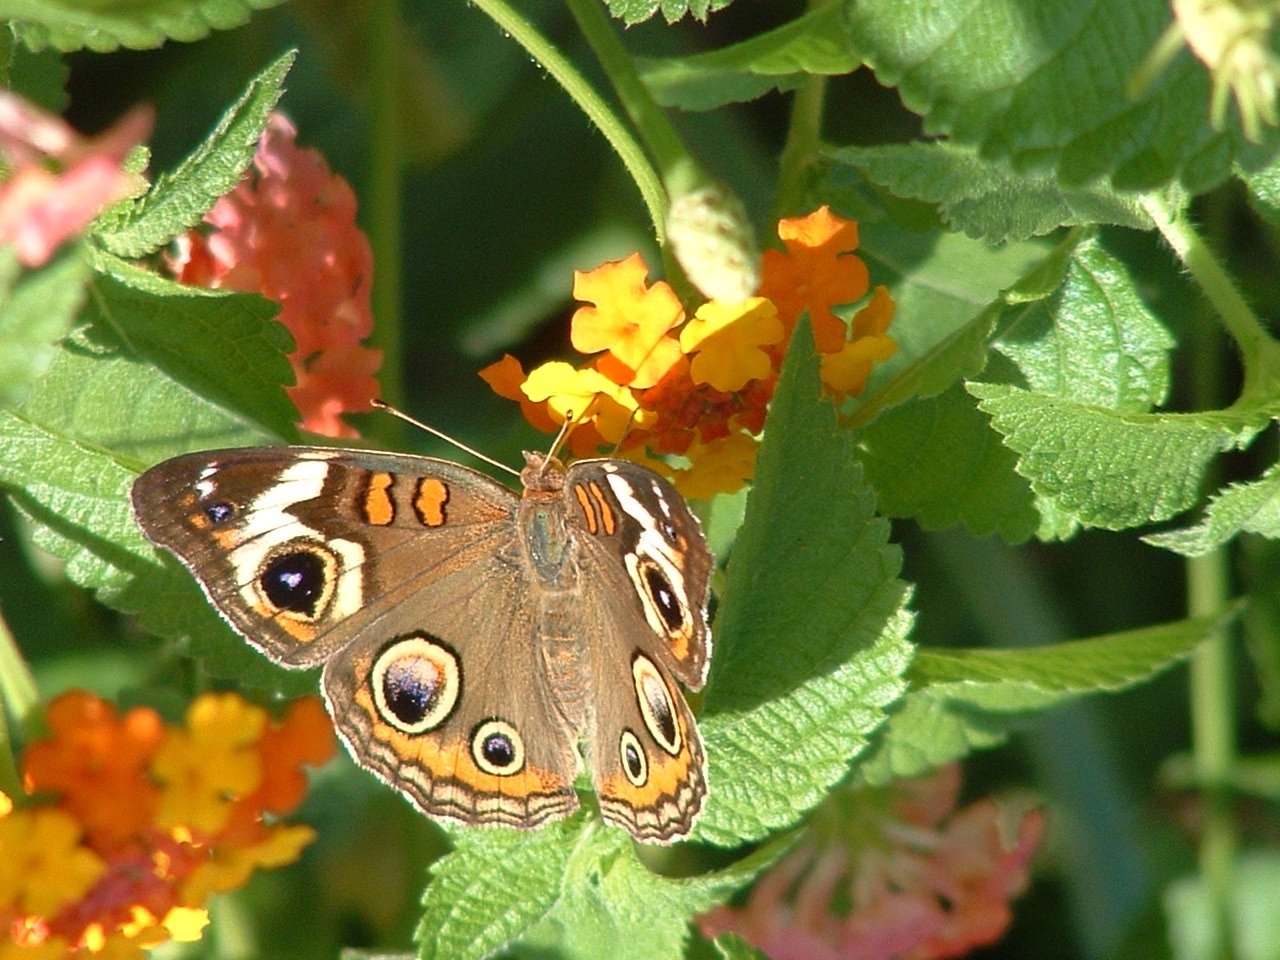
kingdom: Animalia
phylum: Arthropoda
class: Insecta
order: Lepidoptera
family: Nymphalidae
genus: Junonia
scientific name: Junonia coenia
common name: Common Buckeye
